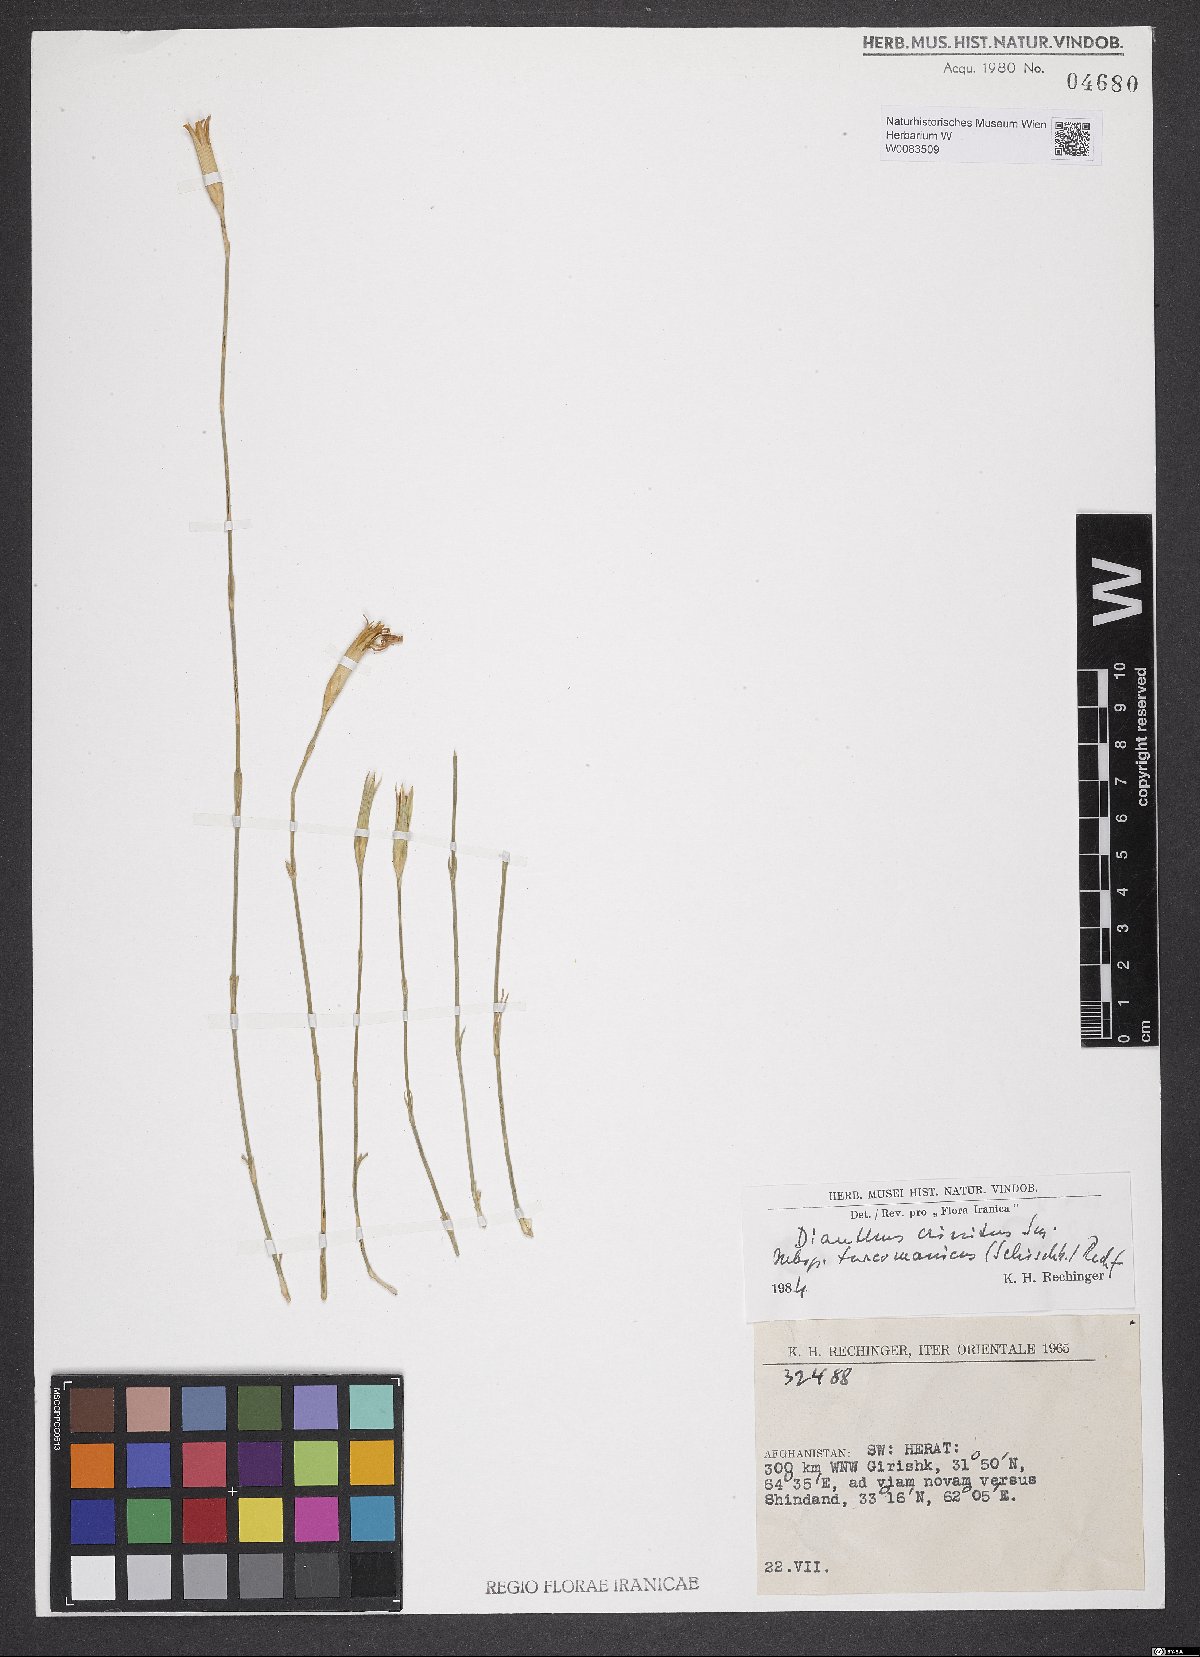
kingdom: Plantae
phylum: Tracheophyta
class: Magnoliopsida
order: Caryophyllales
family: Caryophyllaceae
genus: Dianthus
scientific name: Dianthus turkestanicus
